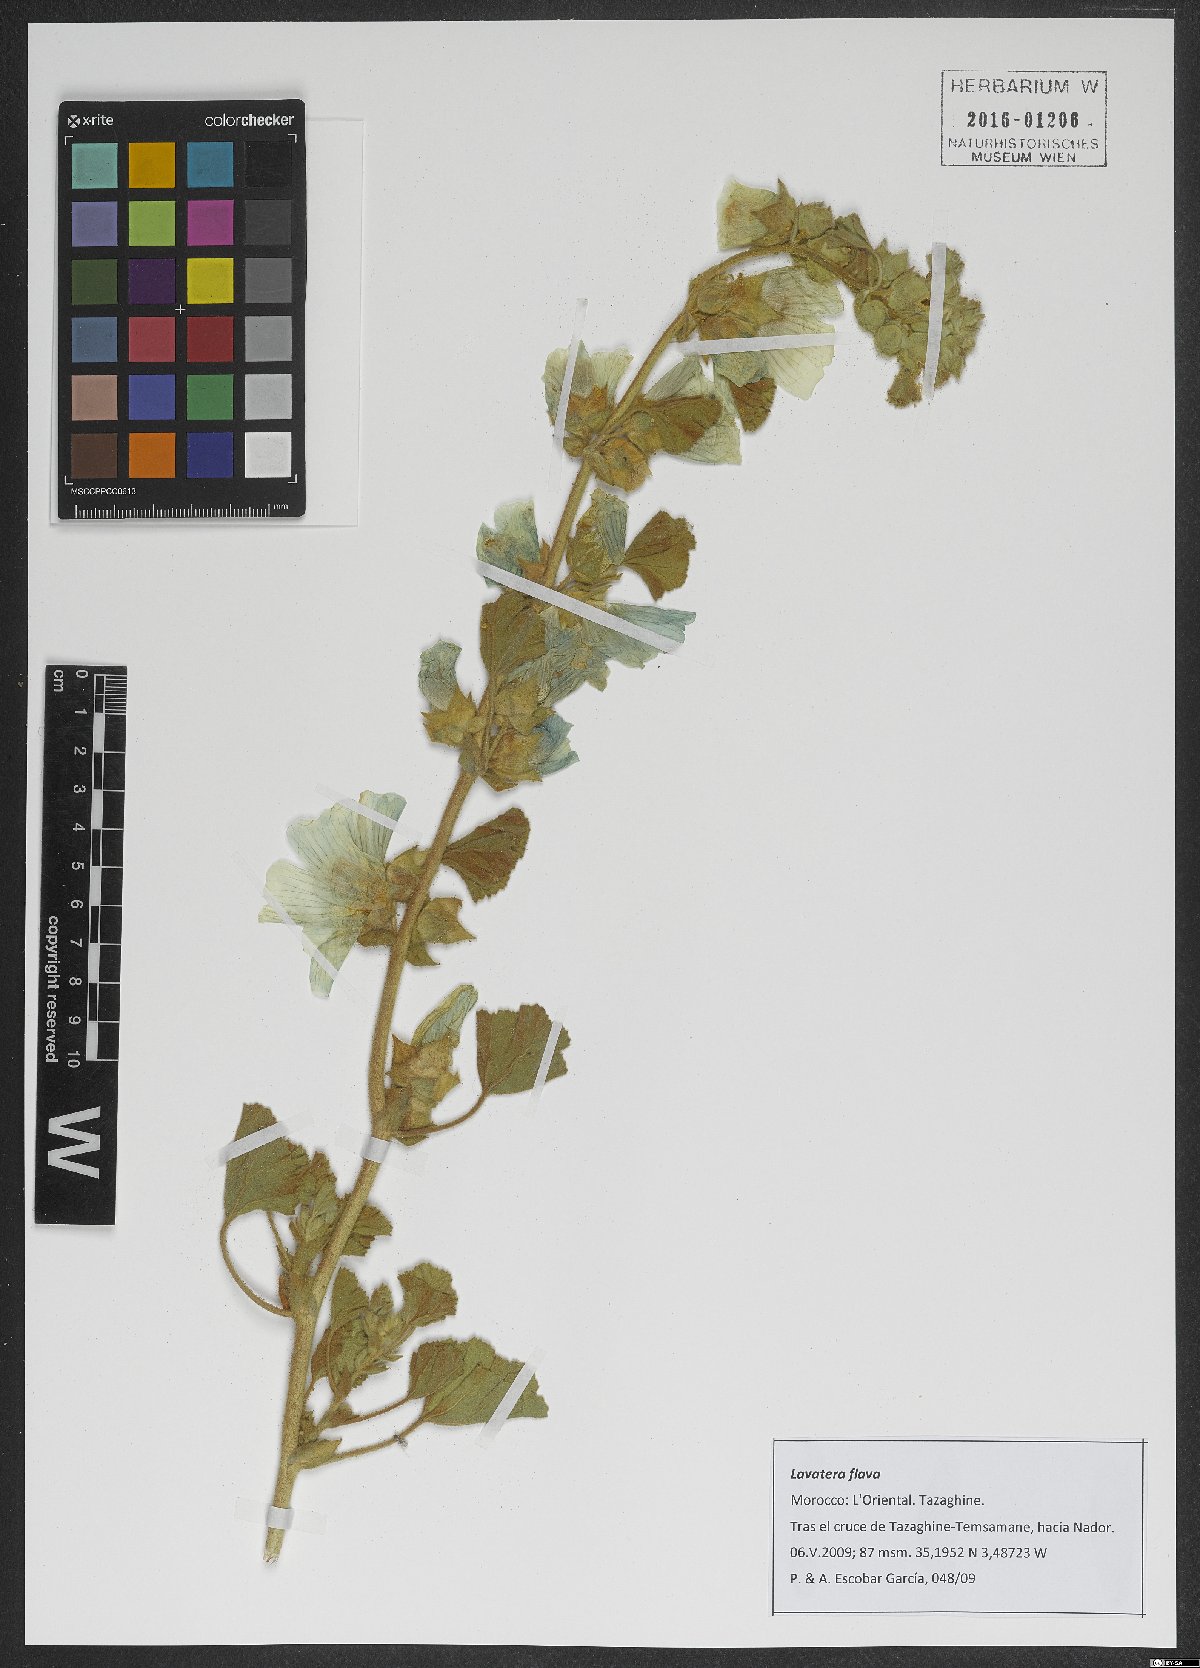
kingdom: Plantae
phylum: Tracheophyta
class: Magnoliopsida
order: Malvales
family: Malvaceae
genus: Malva
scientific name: Malva flava
